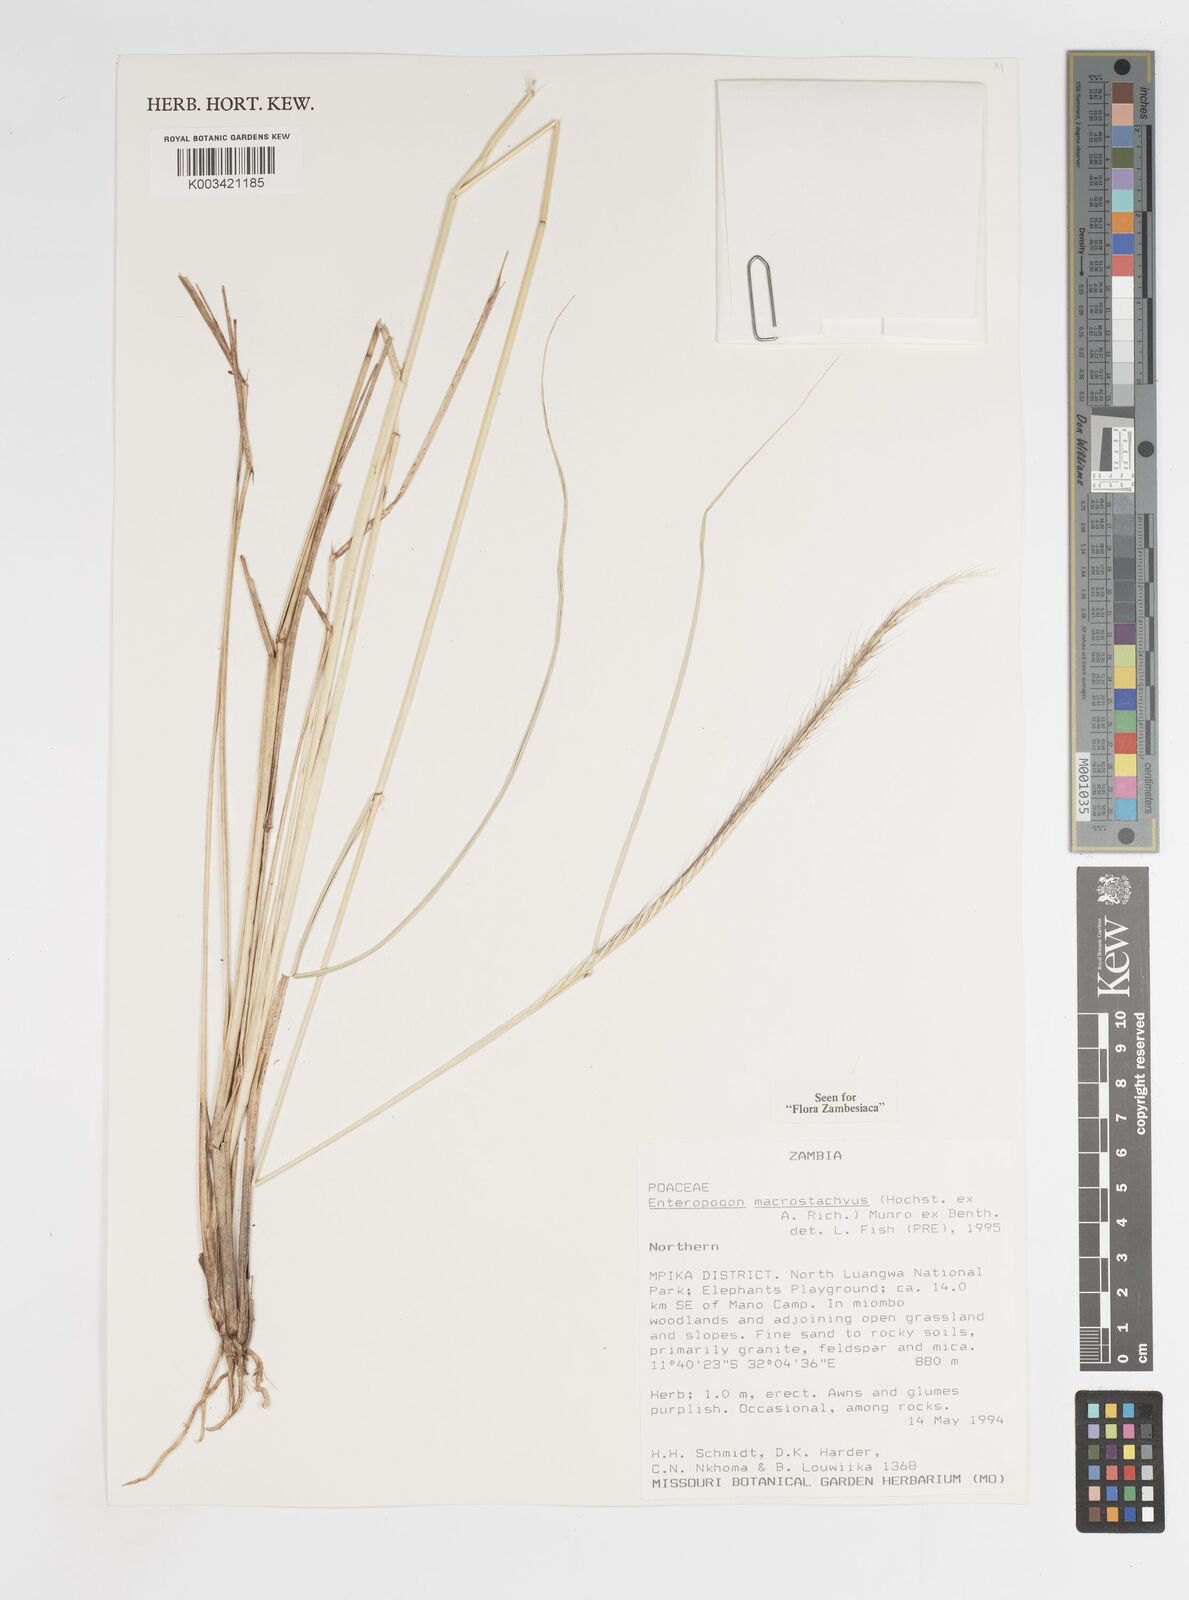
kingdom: Plantae
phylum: Tracheophyta
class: Liliopsida
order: Poales
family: Poaceae
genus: Enteropogon
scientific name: Enteropogon macrostachyus
